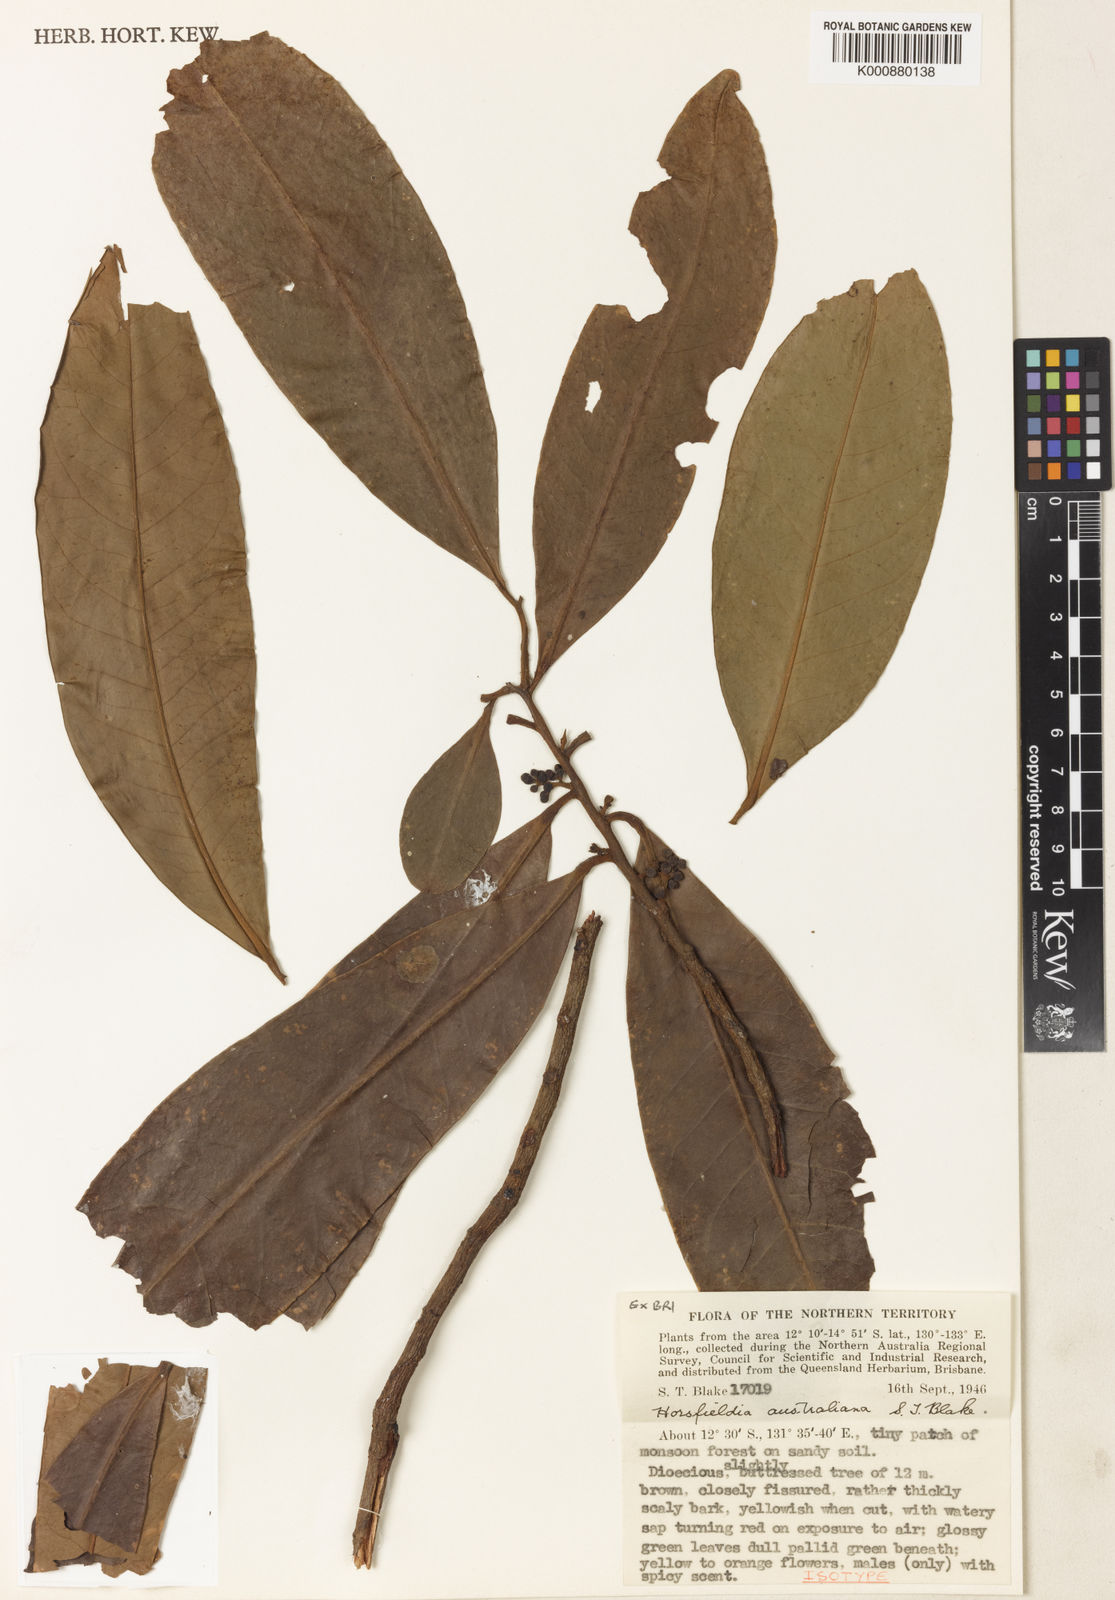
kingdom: Plantae
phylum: Tracheophyta
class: Magnoliopsida
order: Magnoliales
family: Myristicaceae
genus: Horsfieldia
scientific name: Horsfieldia australiana
